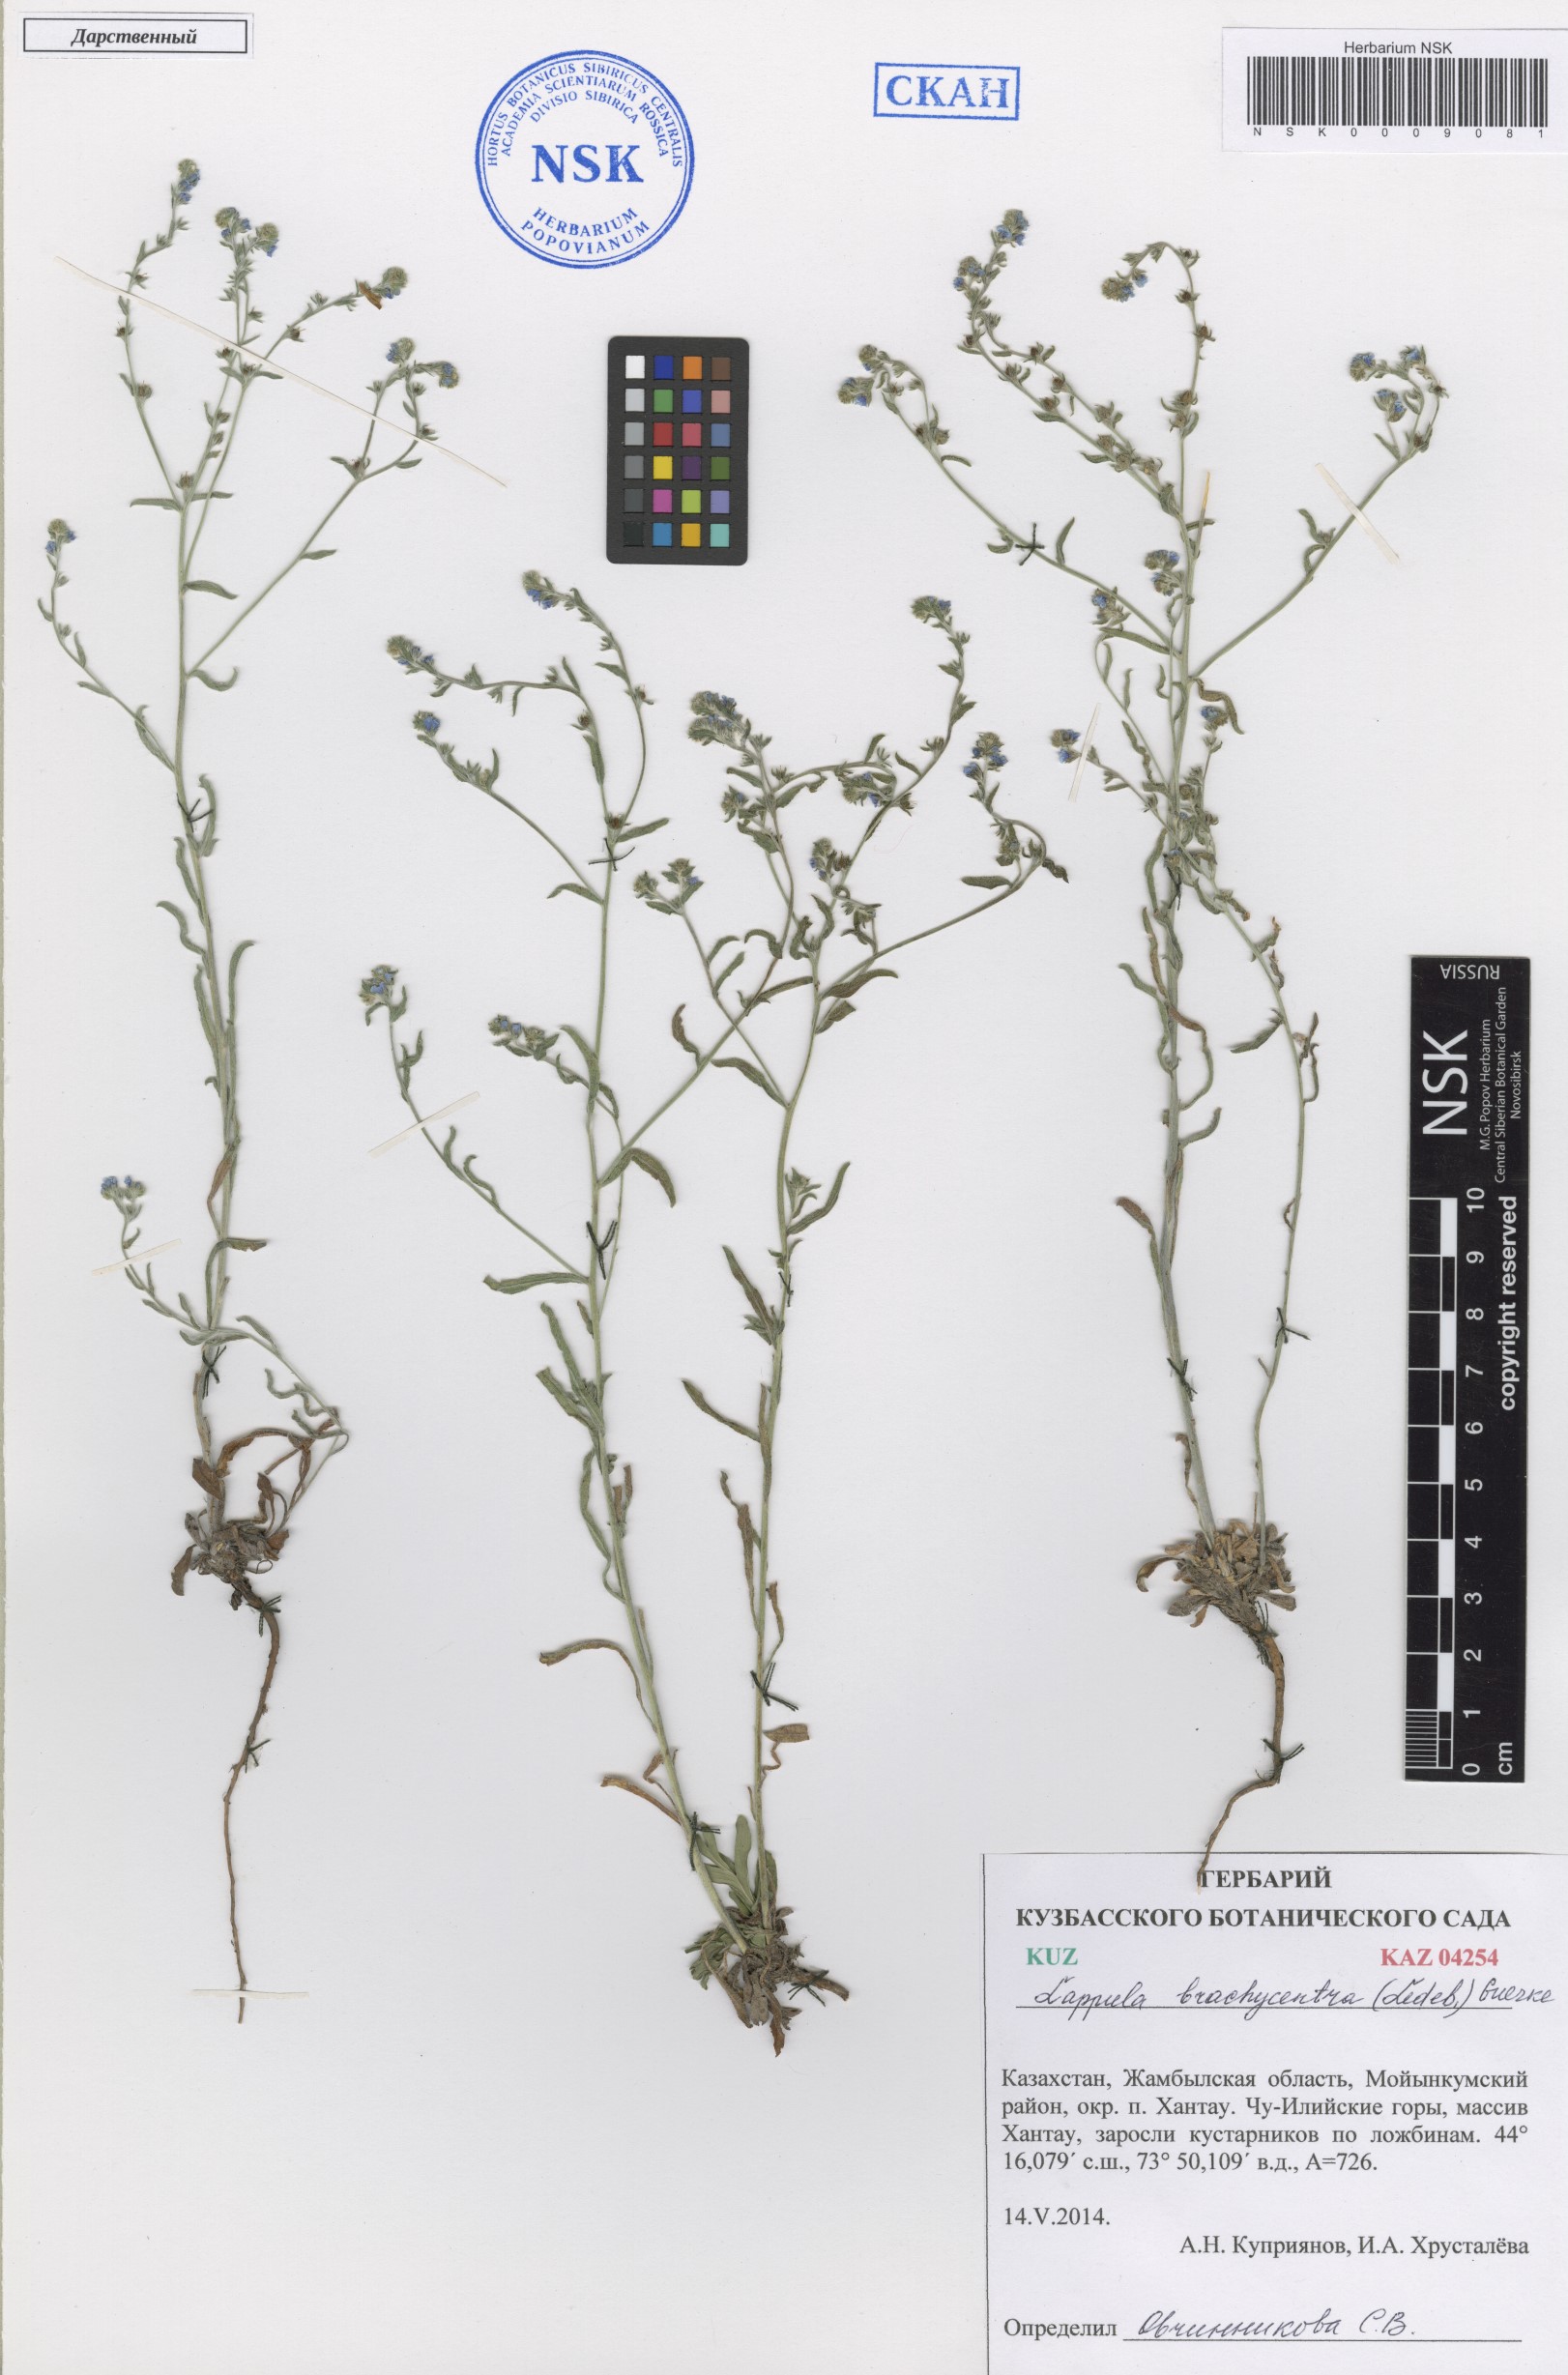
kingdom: Plantae
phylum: Tracheophyta
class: Magnoliopsida
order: Boraginales
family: Boraginaceae
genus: Lappula
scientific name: Lappula brachycentra
